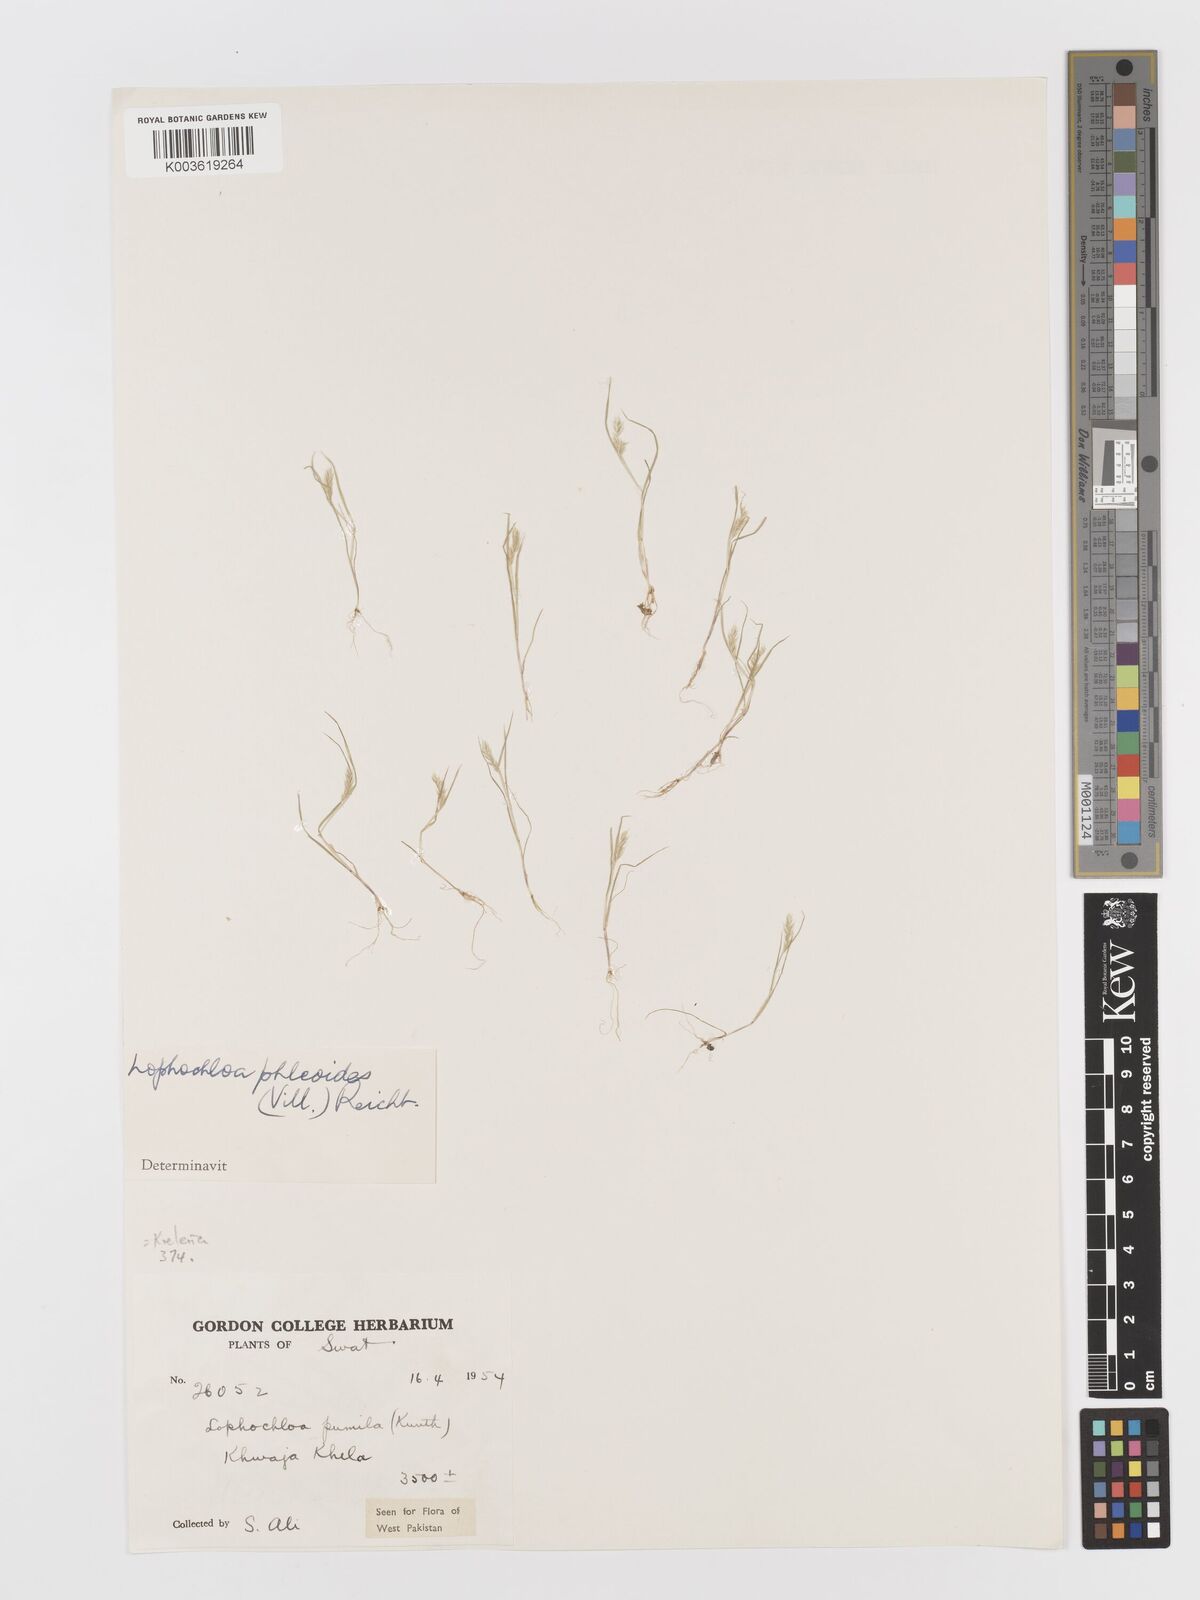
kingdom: Plantae
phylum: Tracheophyta
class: Liliopsida
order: Poales
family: Poaceae
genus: Rostraria
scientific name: Rostraria cristata
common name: Mediterranean hair-grass
